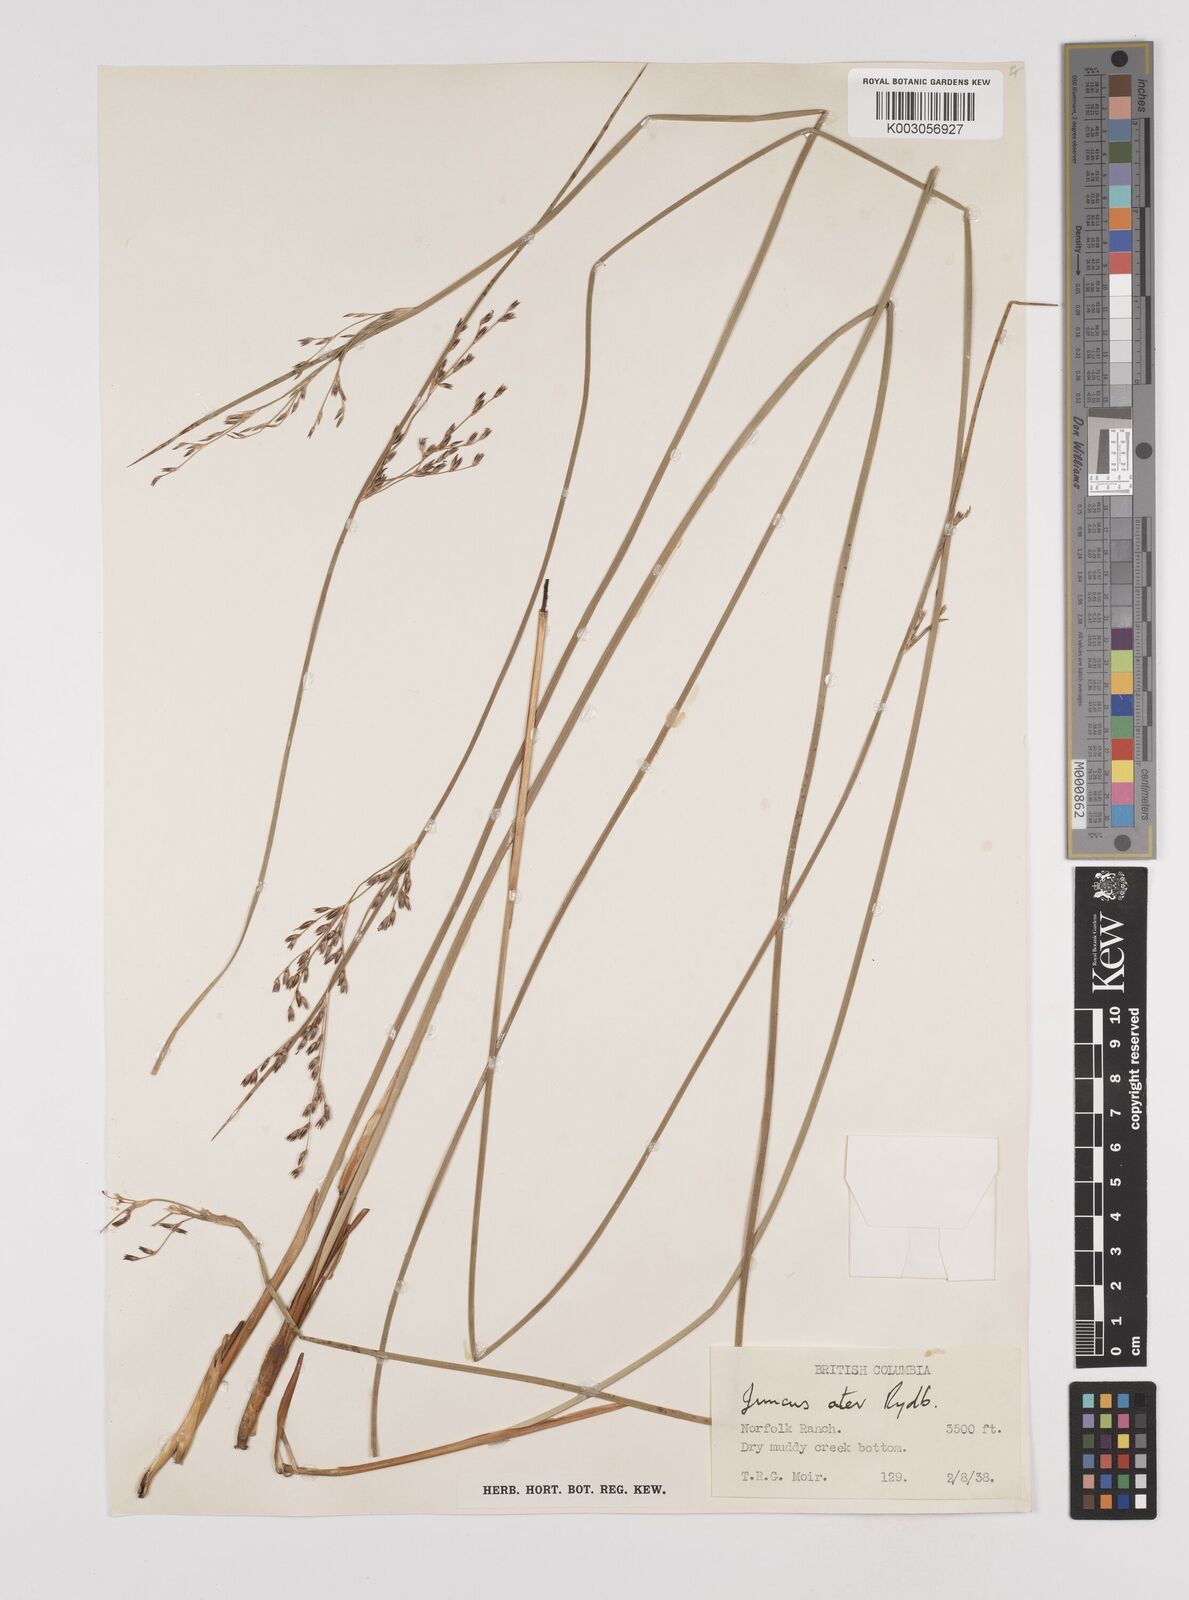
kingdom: Plantae
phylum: Tracheophyta
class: Liliopsida
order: Poales
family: Juncaceae
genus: Juncus
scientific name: Juncus balticus
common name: Baltic rush
